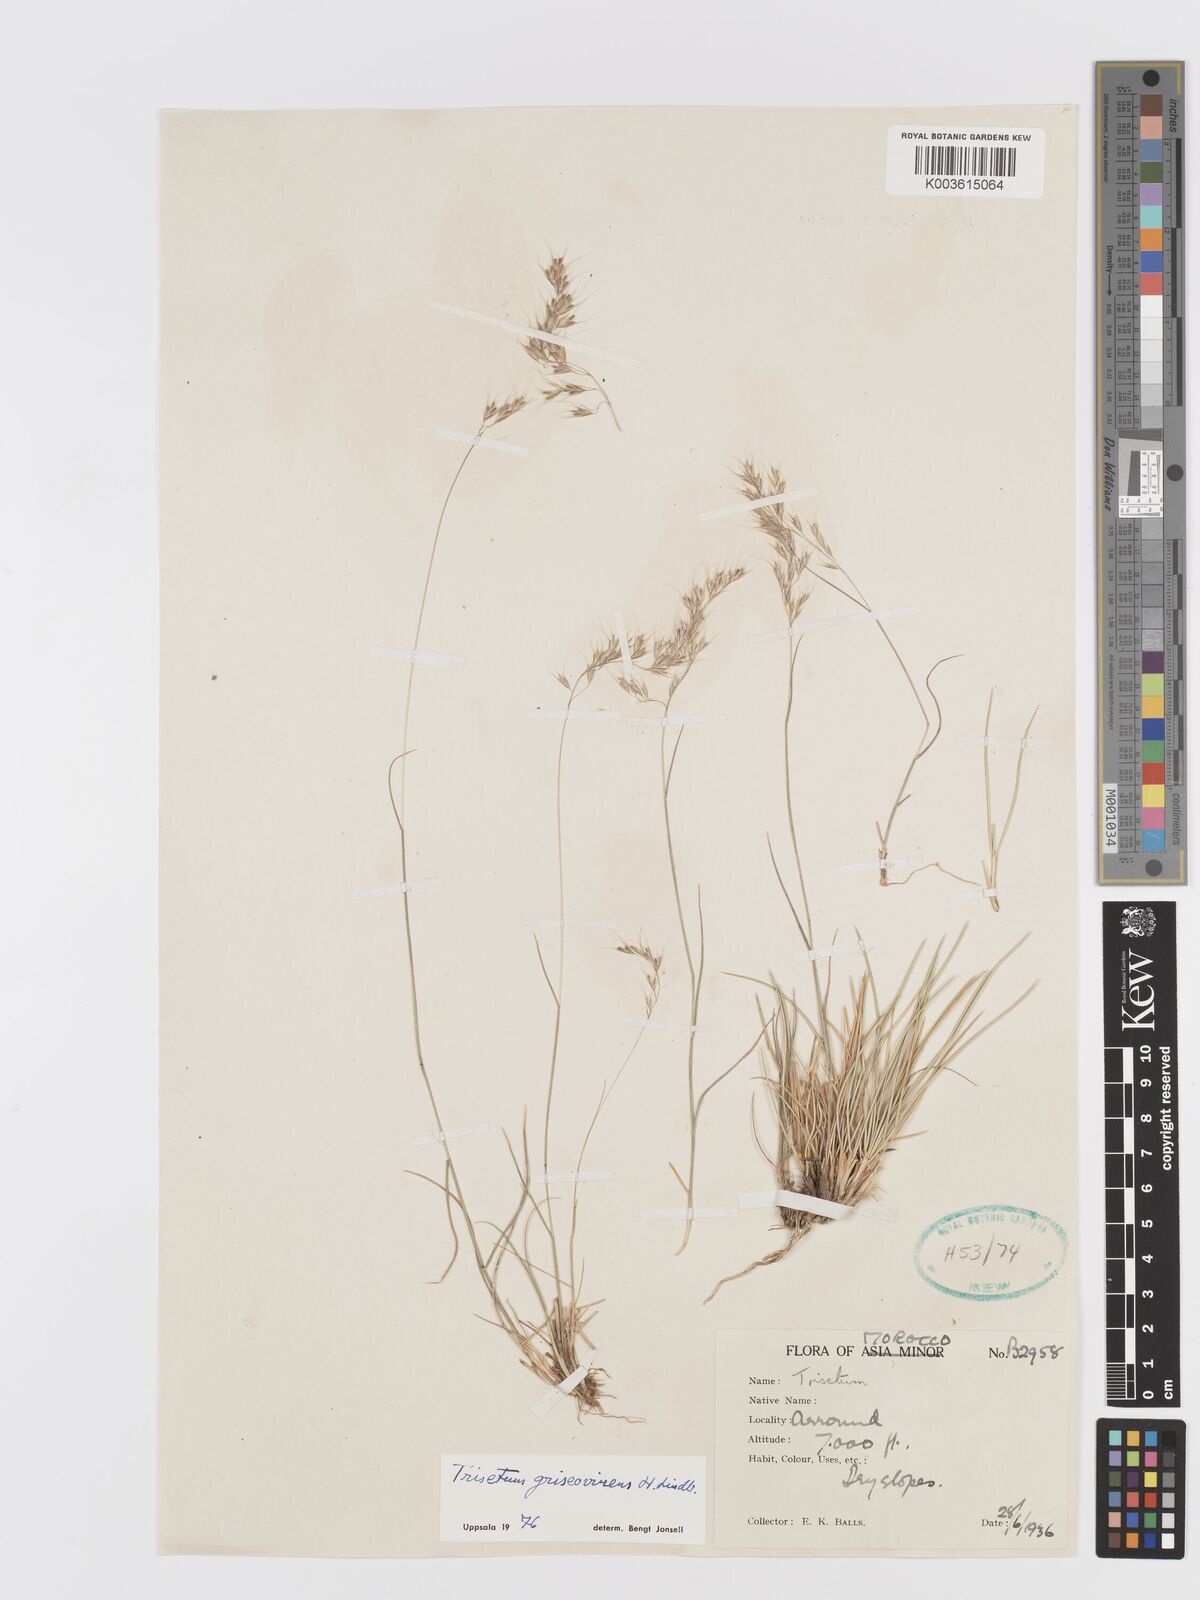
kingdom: Plantae
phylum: Tracheophyta
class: Liliopsida
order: Poales
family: Poaceae
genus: Trisetum
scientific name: Trisetum flavescens
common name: Yellow oat-grass
